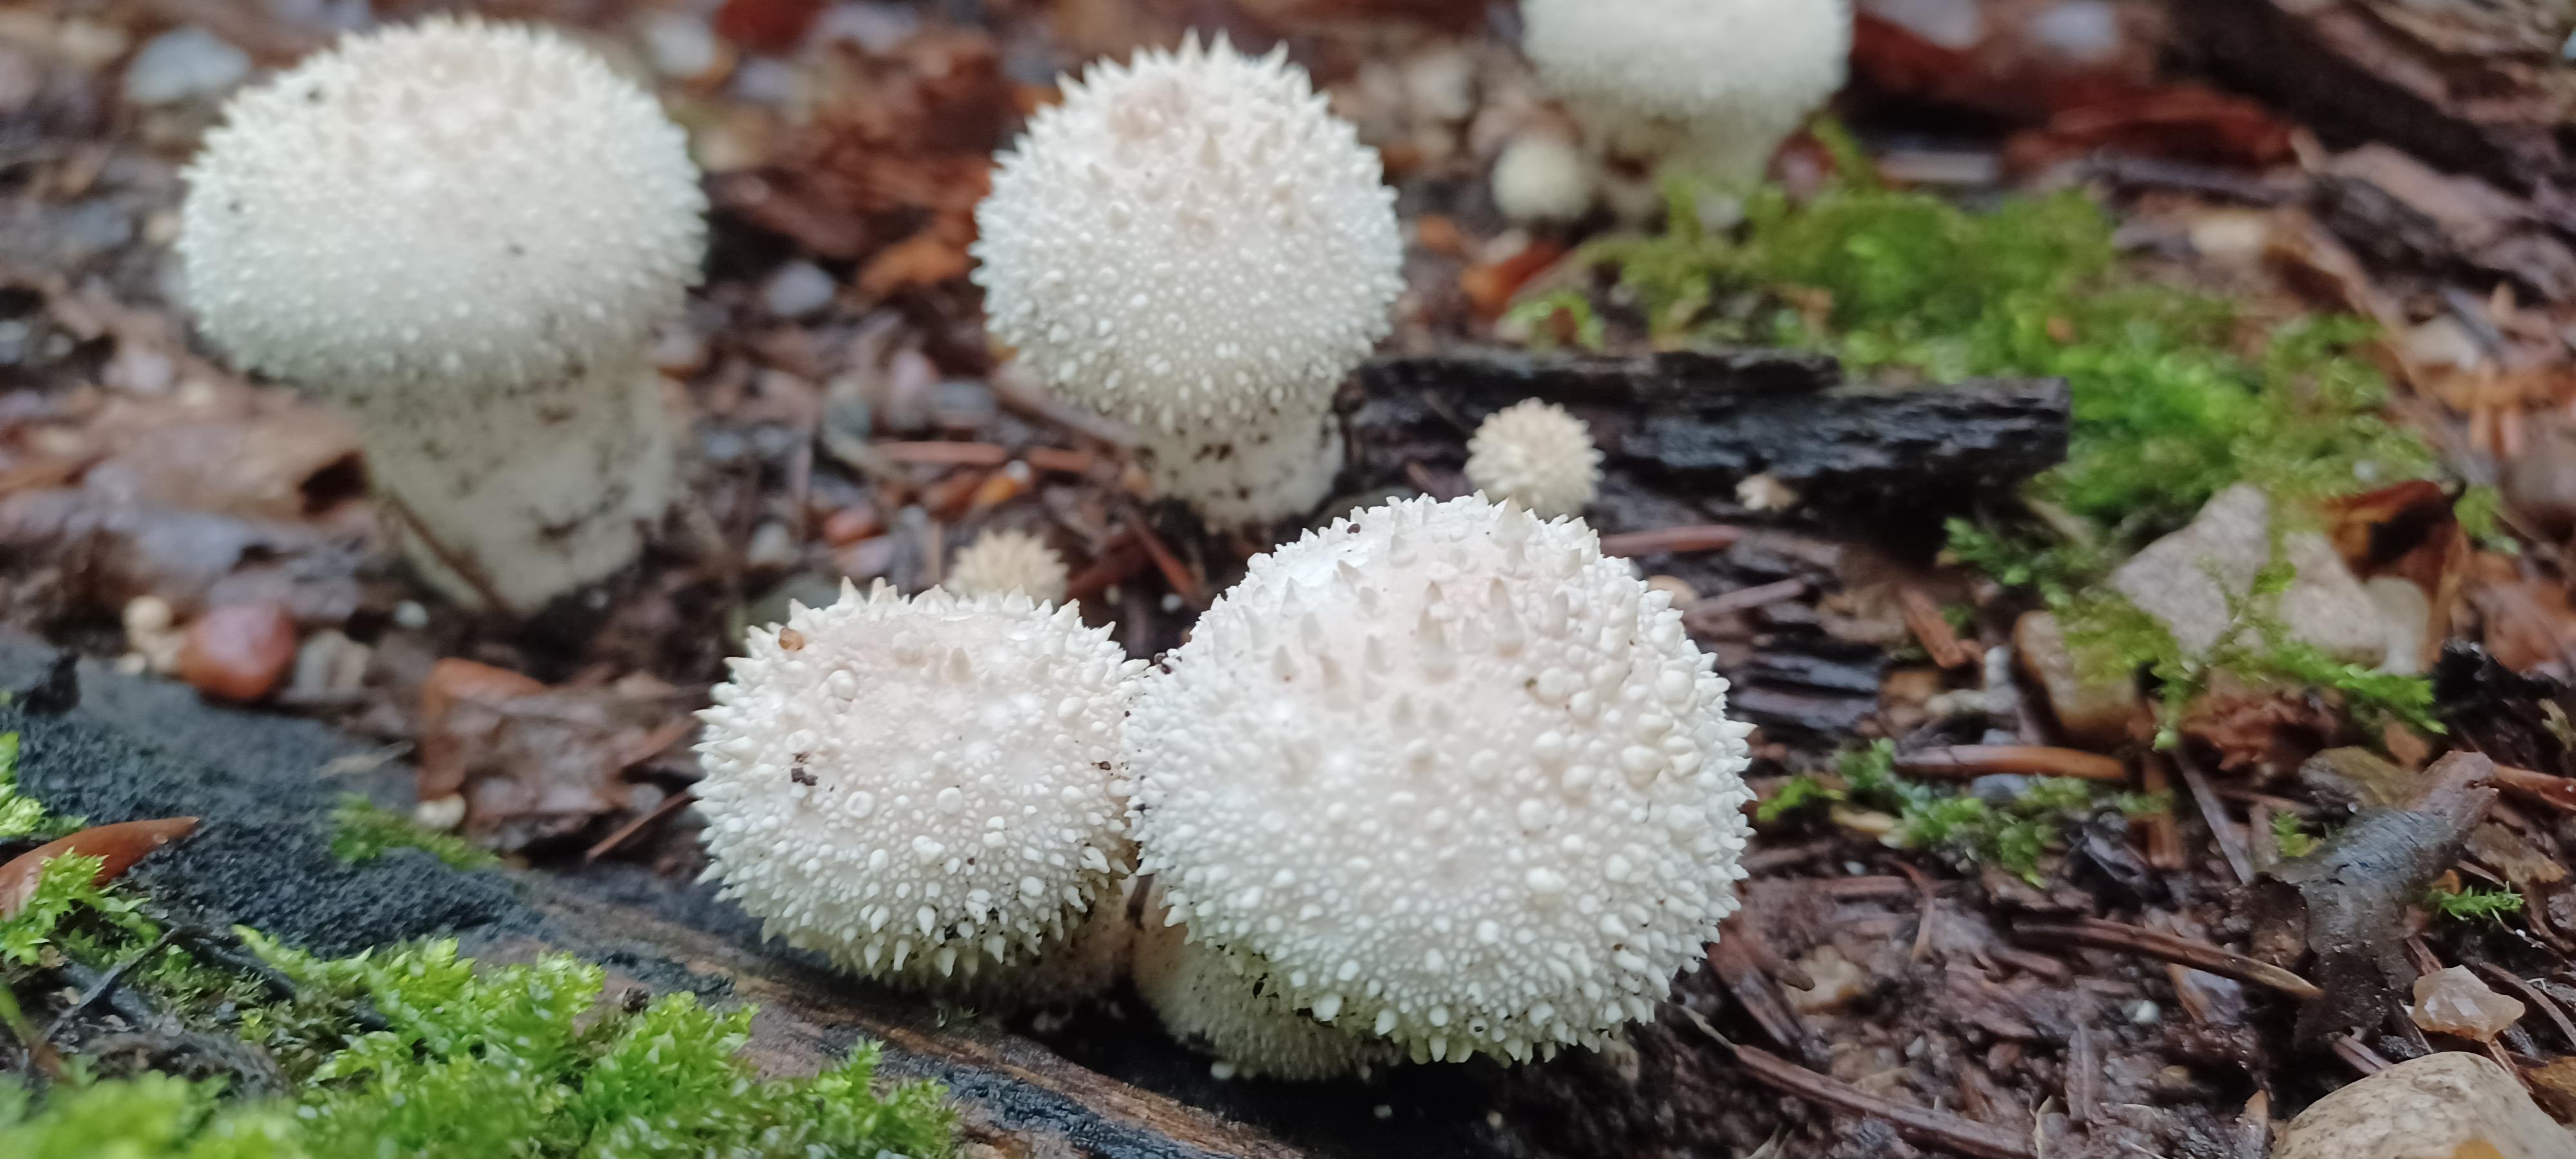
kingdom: Fungi
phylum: Basidiomycota
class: Agaricomycetes
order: Agaricales
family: Lycoperdaceae
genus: Lycoperdon
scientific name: Lycoperdon perlatum
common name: krystal-støvbold
